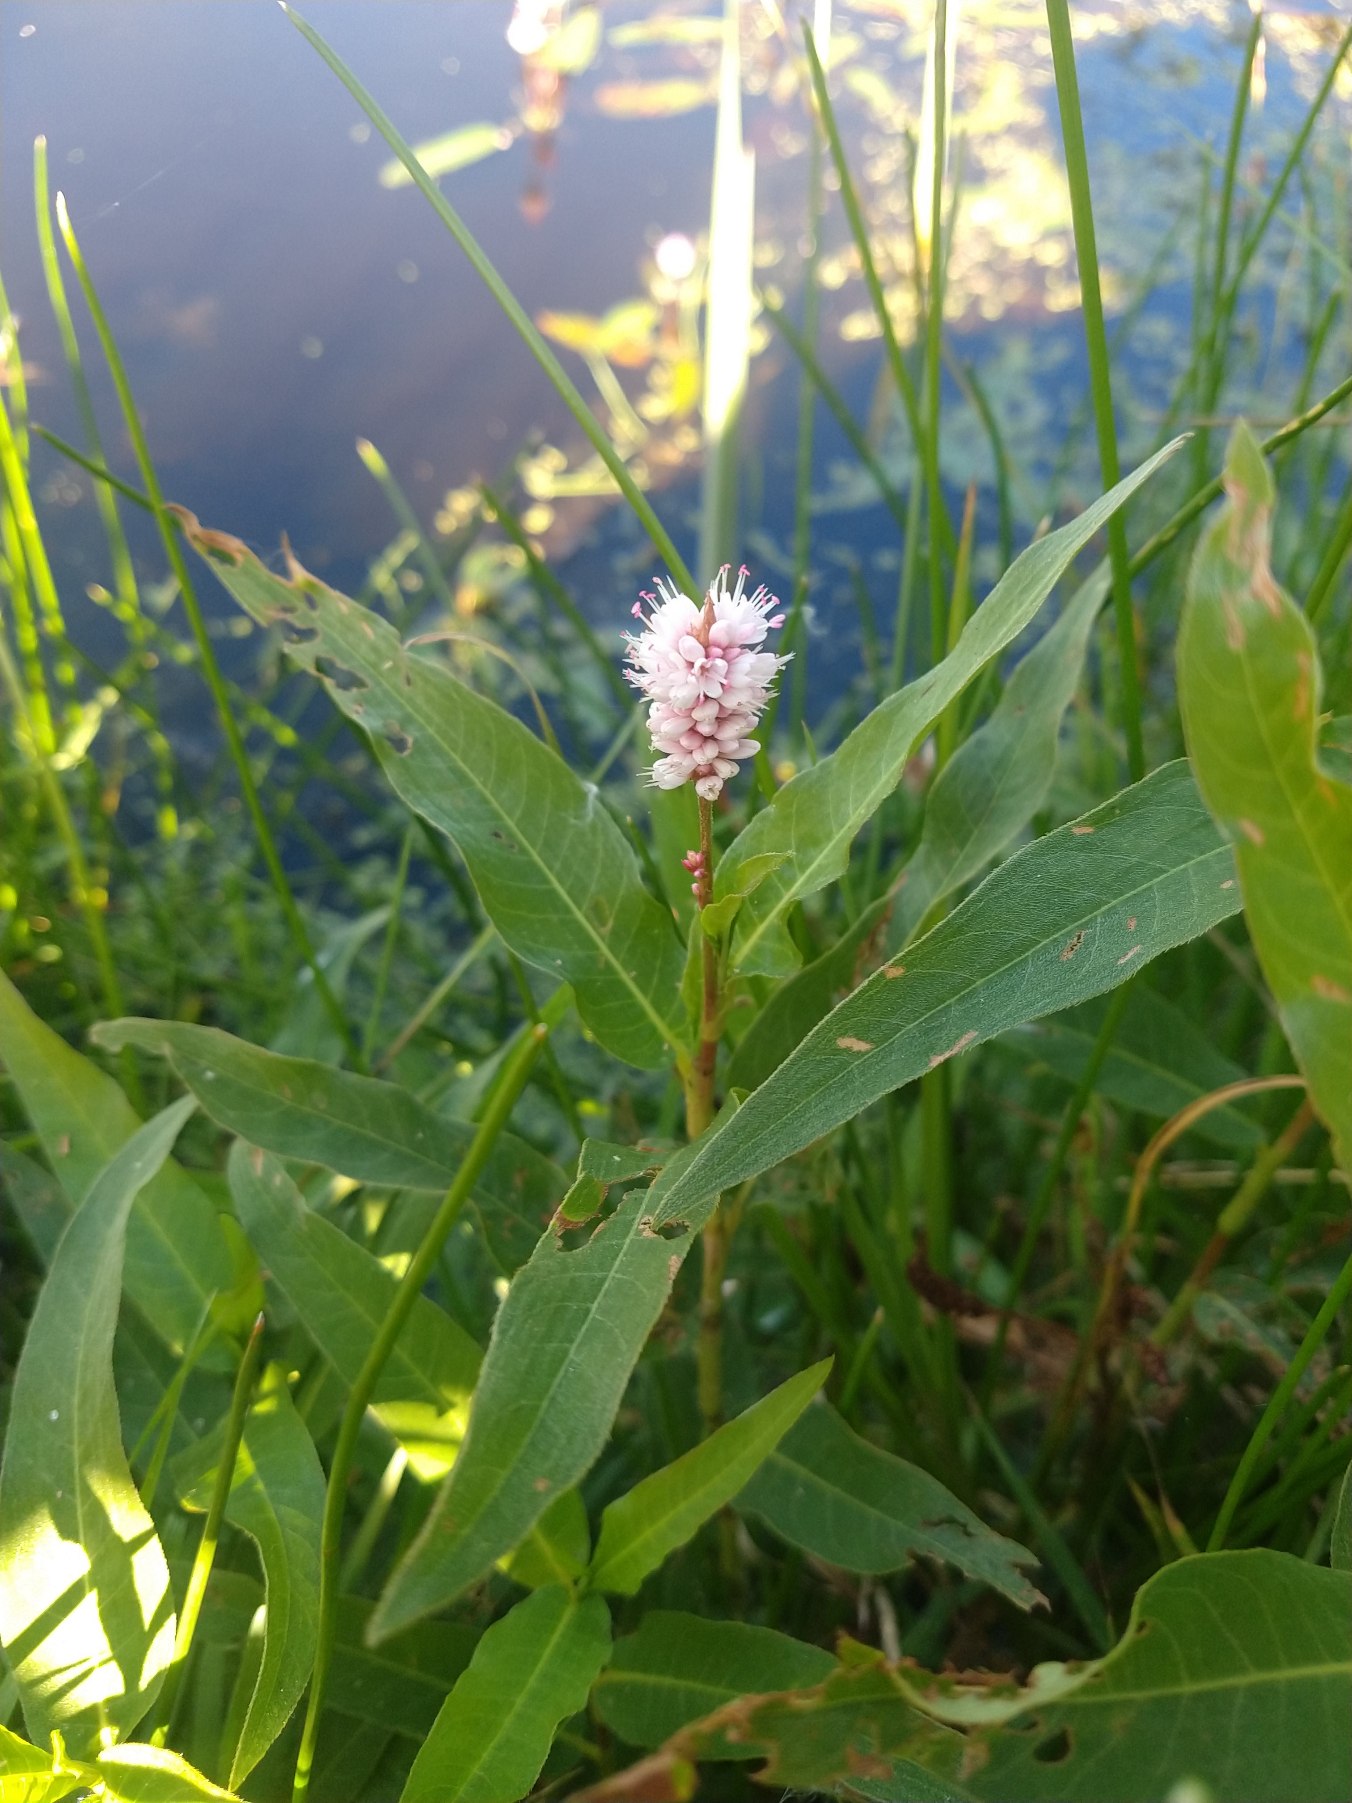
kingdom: Plantae
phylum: Tracheophyta
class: Magnoliopsida
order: Caryophyllales
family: Polygonaceae
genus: Persicaria
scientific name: Persicaria amphibia
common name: Vand-pileurt
